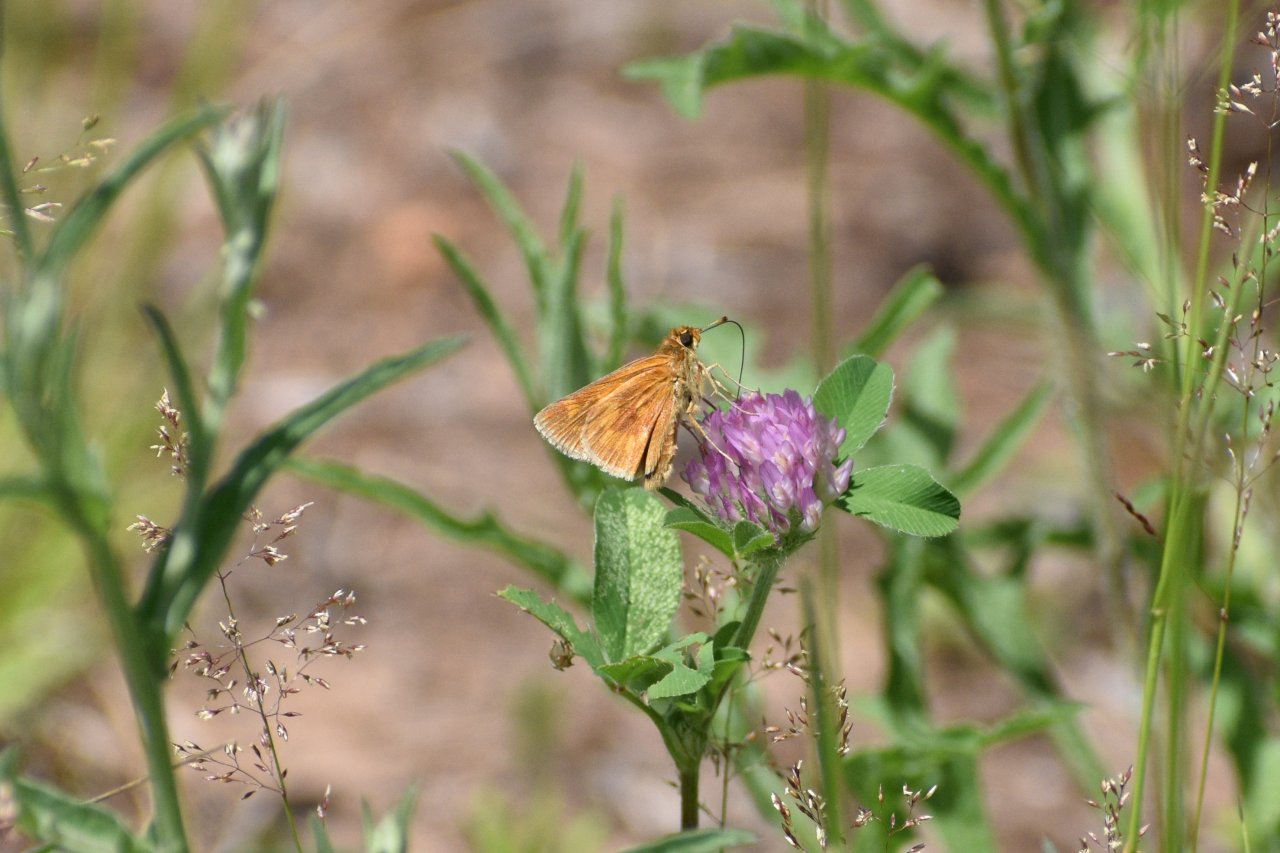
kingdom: Animalia
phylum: Arthropoda
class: Insecta
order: Lepidoptera
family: Hesperiidae
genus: Polites
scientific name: Polites
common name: Long Dash Skipper
